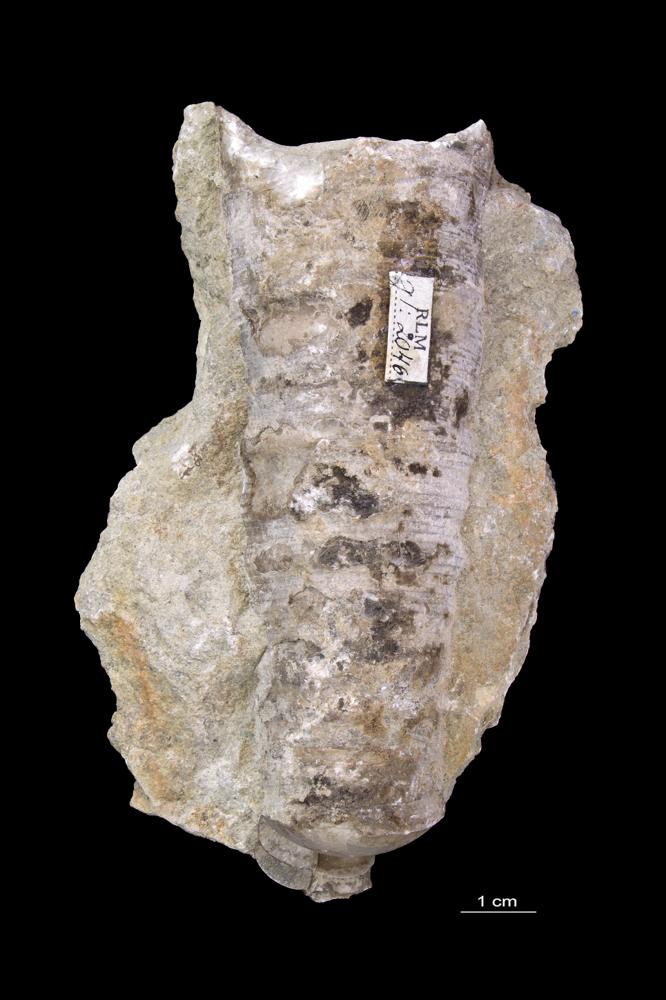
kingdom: Animalia
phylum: Mollusca
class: Cephalopoda
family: Estonioceratidae
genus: Estonioceras
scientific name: Estonioceras
